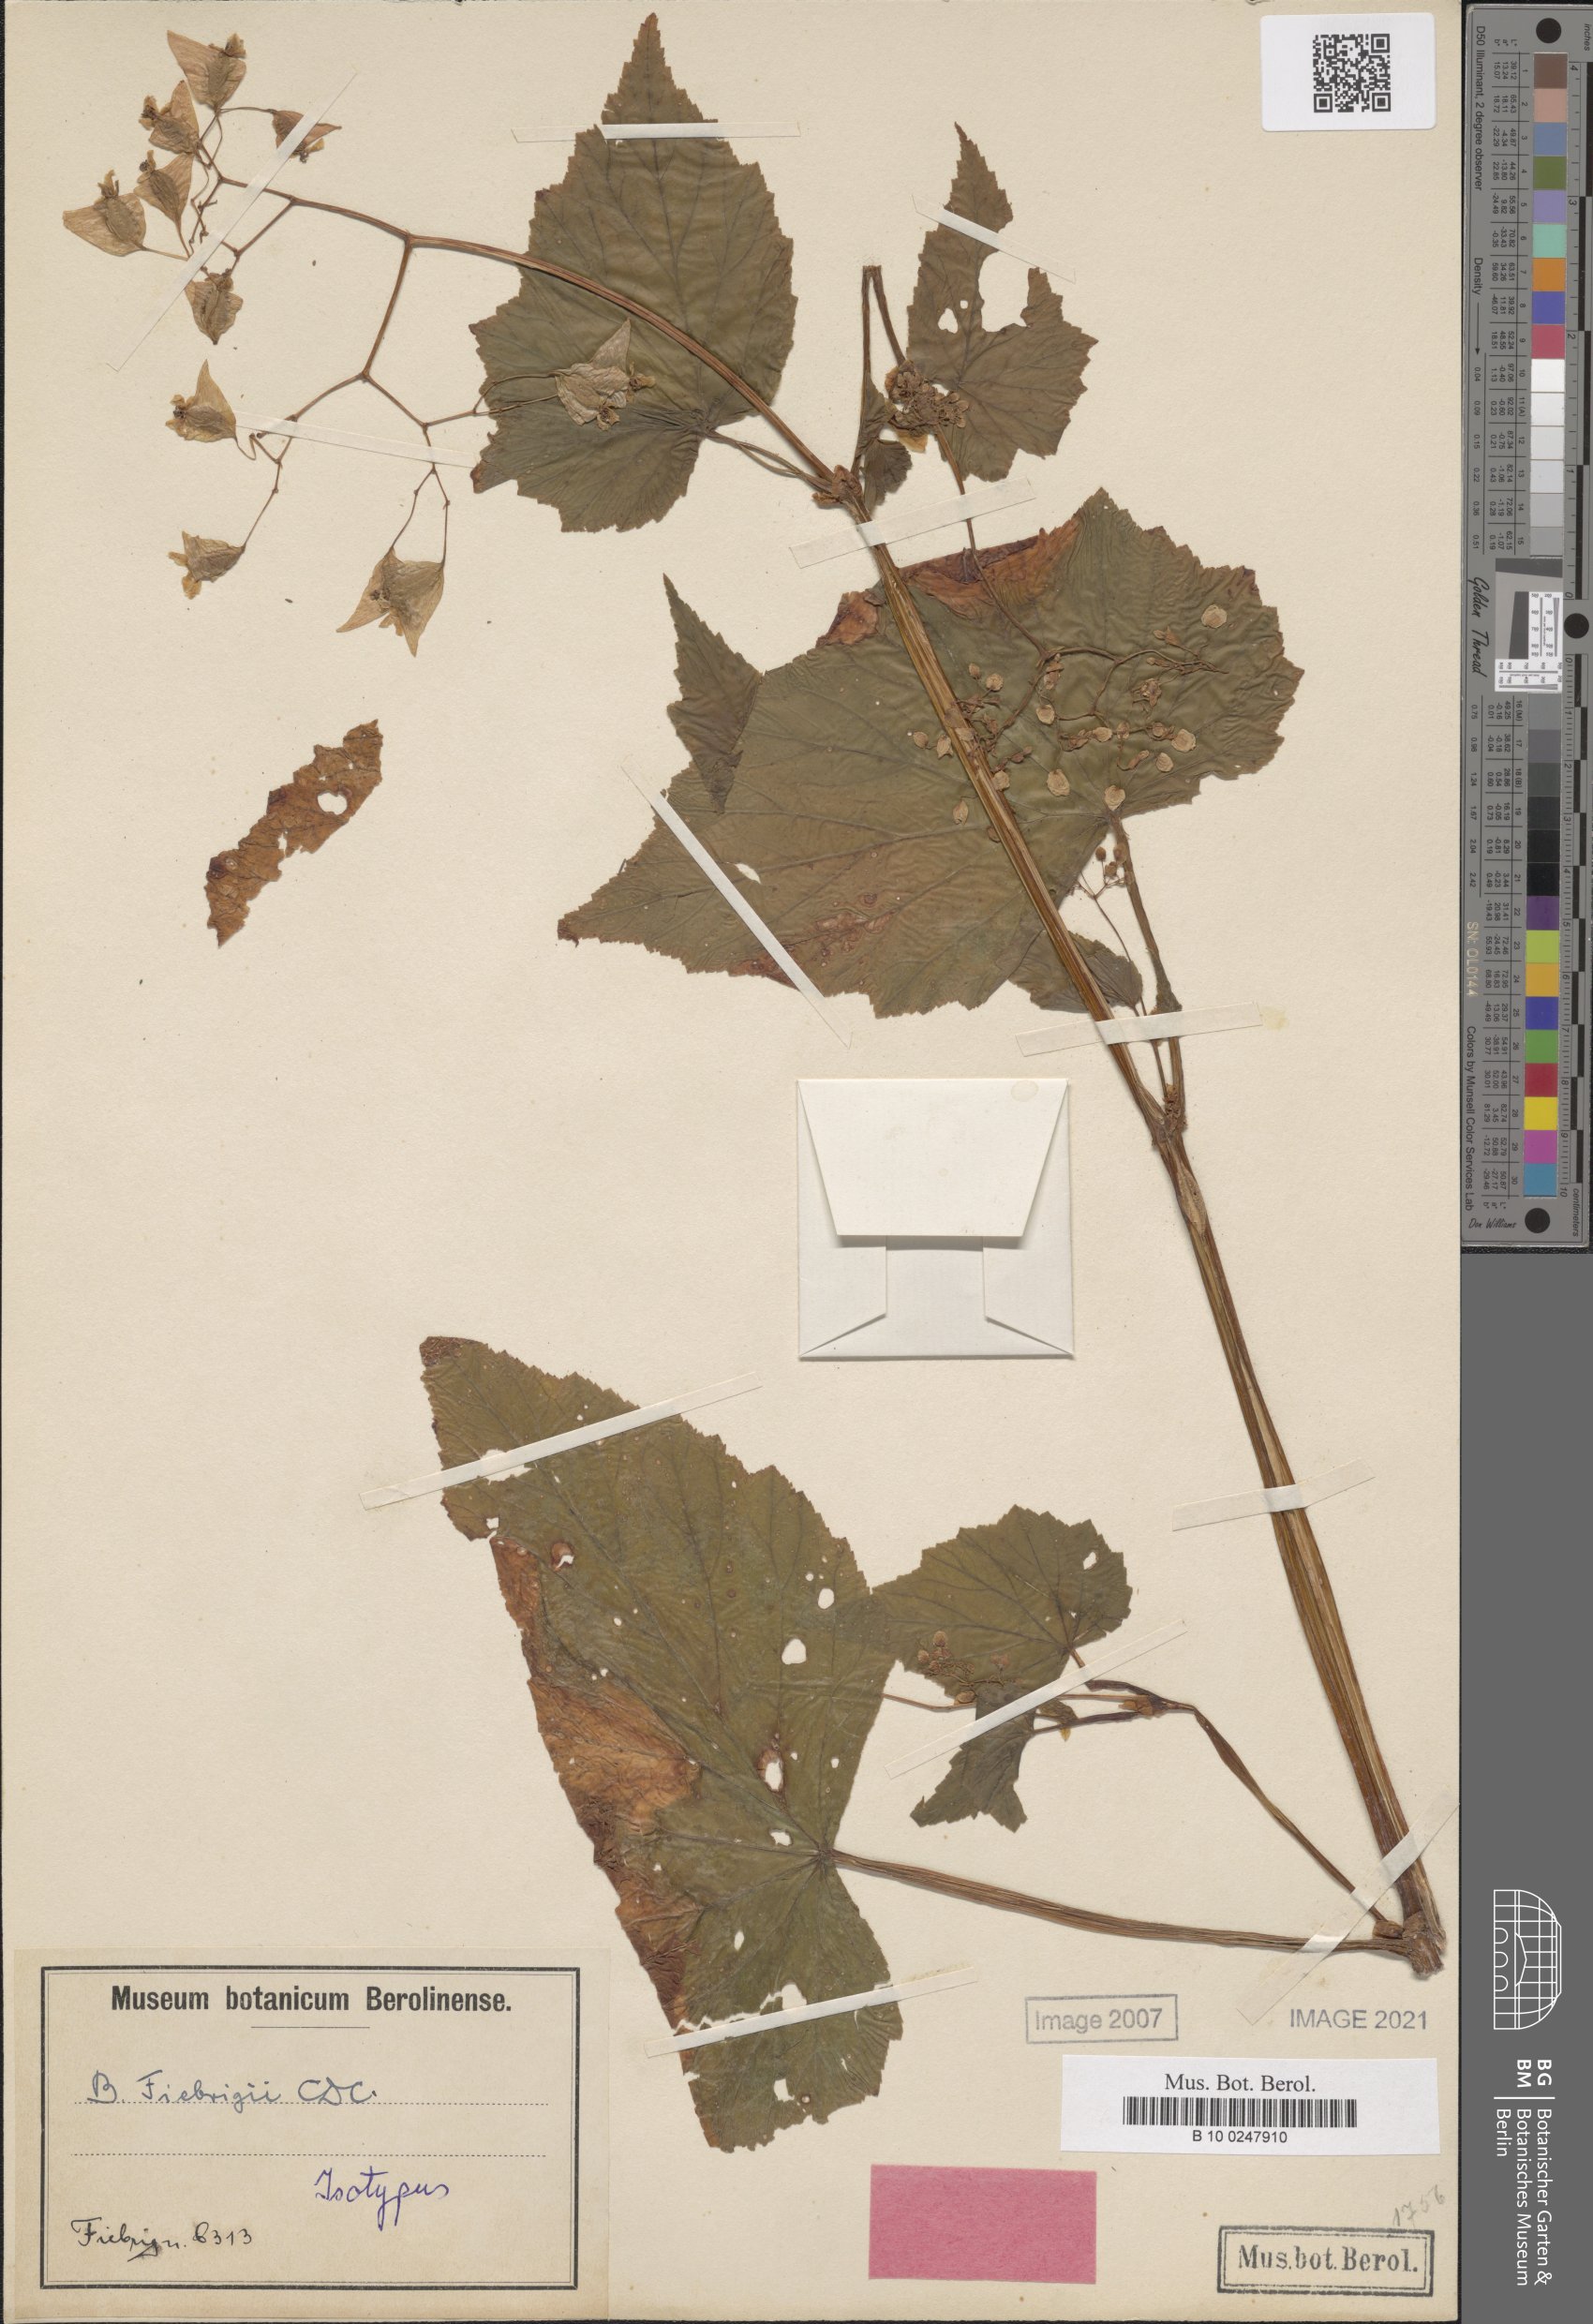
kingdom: Plantae
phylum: Tracheophyta
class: Magnoliopsida
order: Cucurbitales
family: Begoniaceae
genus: Begonia
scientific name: Begonia fiebrigii
